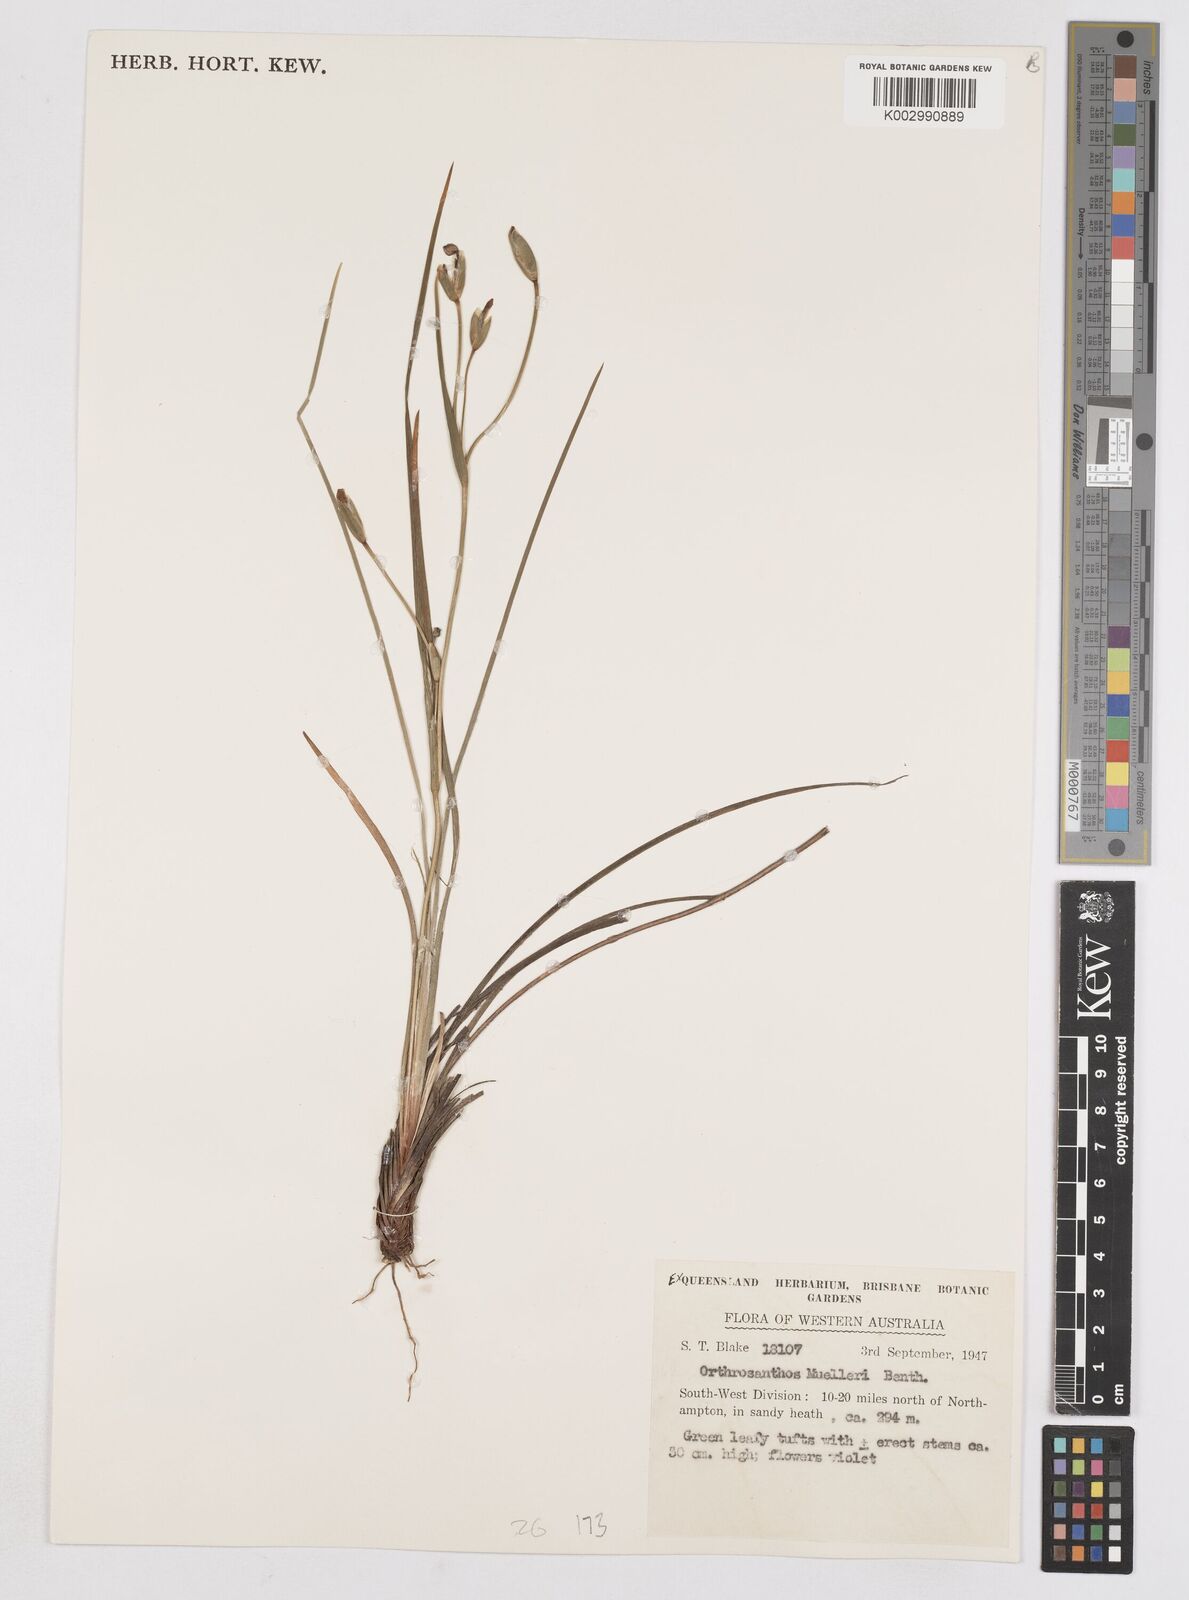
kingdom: Plantae
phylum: Tracheophyta
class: Liliopsida
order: Asparagales
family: Iridaceae
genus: Orthrosanthus
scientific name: Orthrosanthus muelleri
